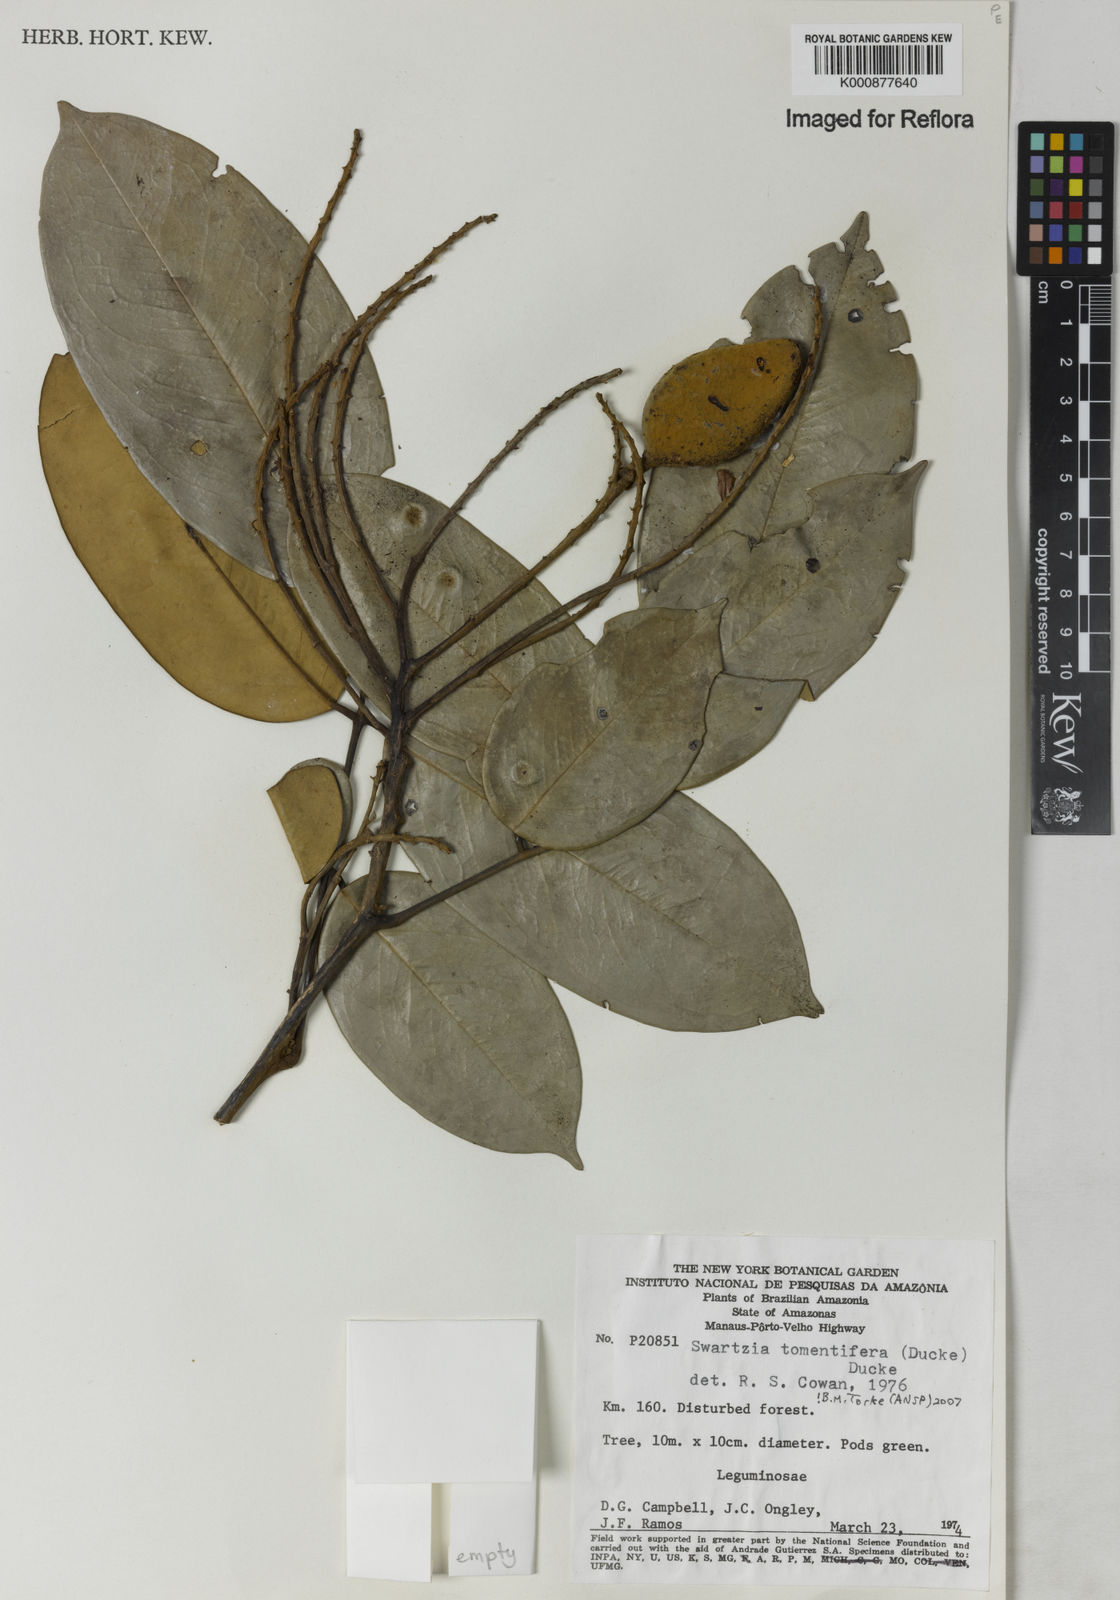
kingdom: Plantae
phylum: Tracheophyta
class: Magnoliopsida
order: Fabales
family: Fabaceae
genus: Swartzia
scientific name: Swartzia tomentifera
